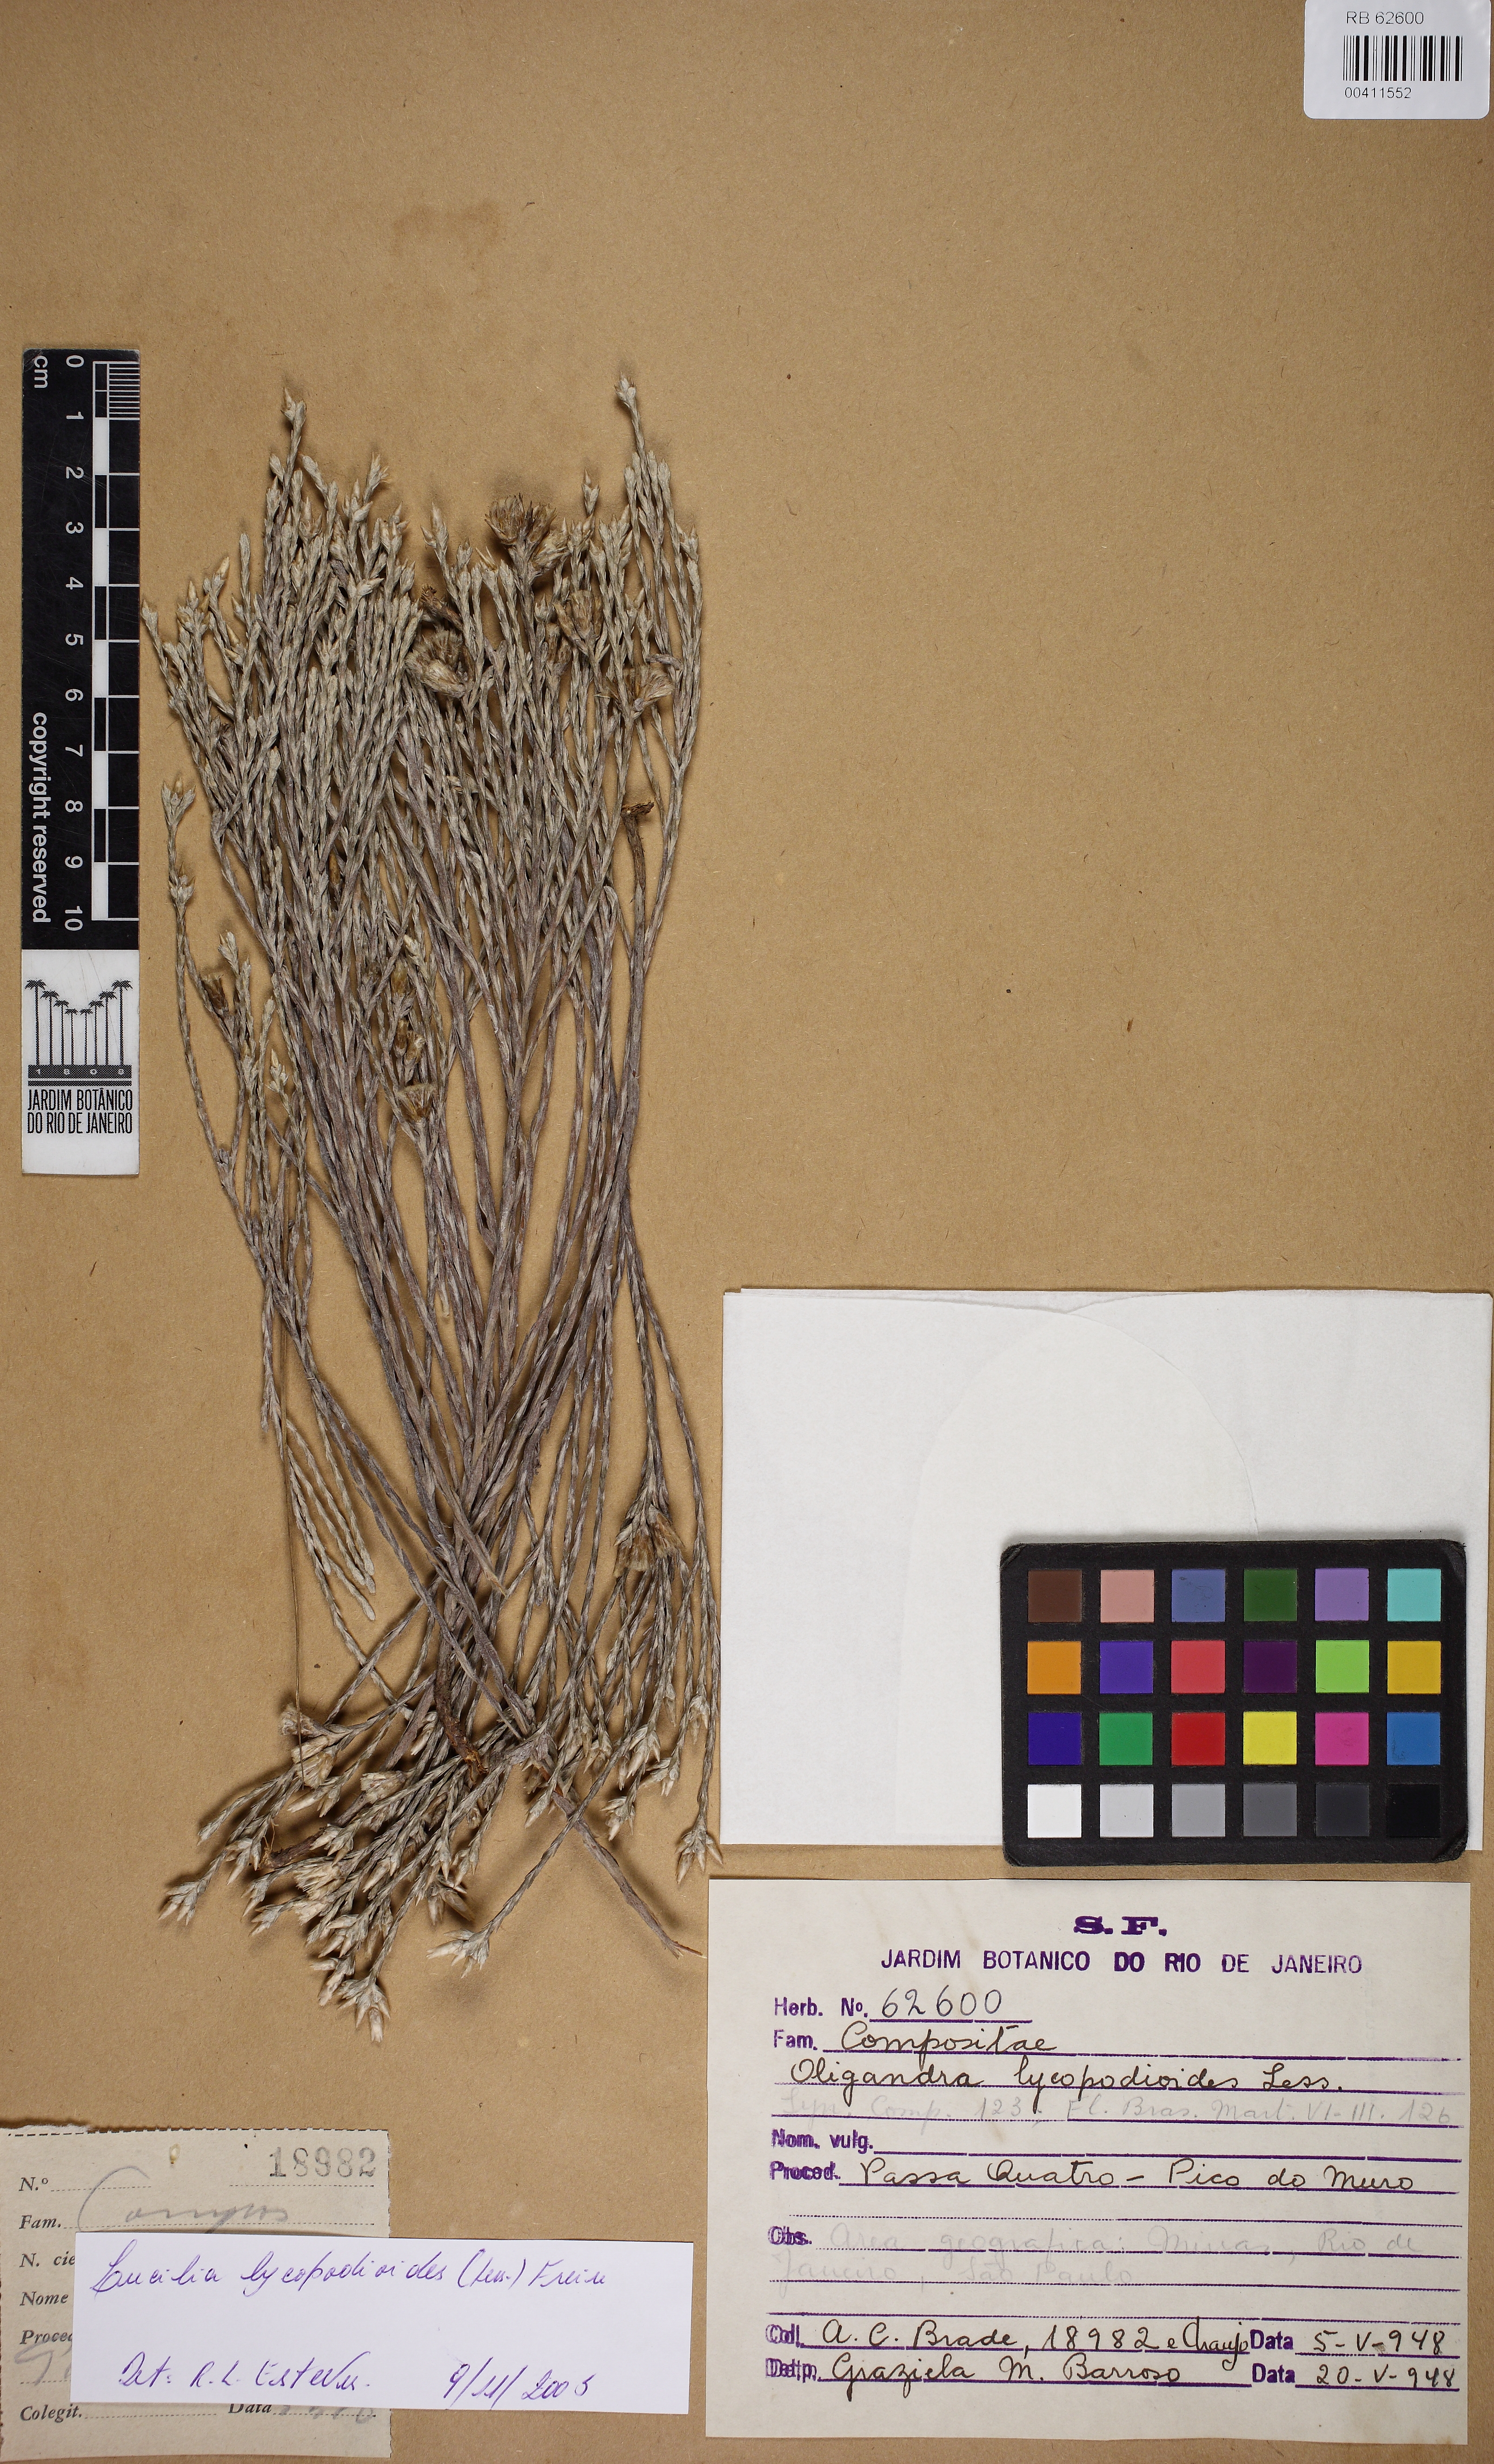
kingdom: Plantae
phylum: Tracheophyta
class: Magnoliopsida
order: Asterales
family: Asteraceae
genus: Lucilia
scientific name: Lucilia lycopodioides
